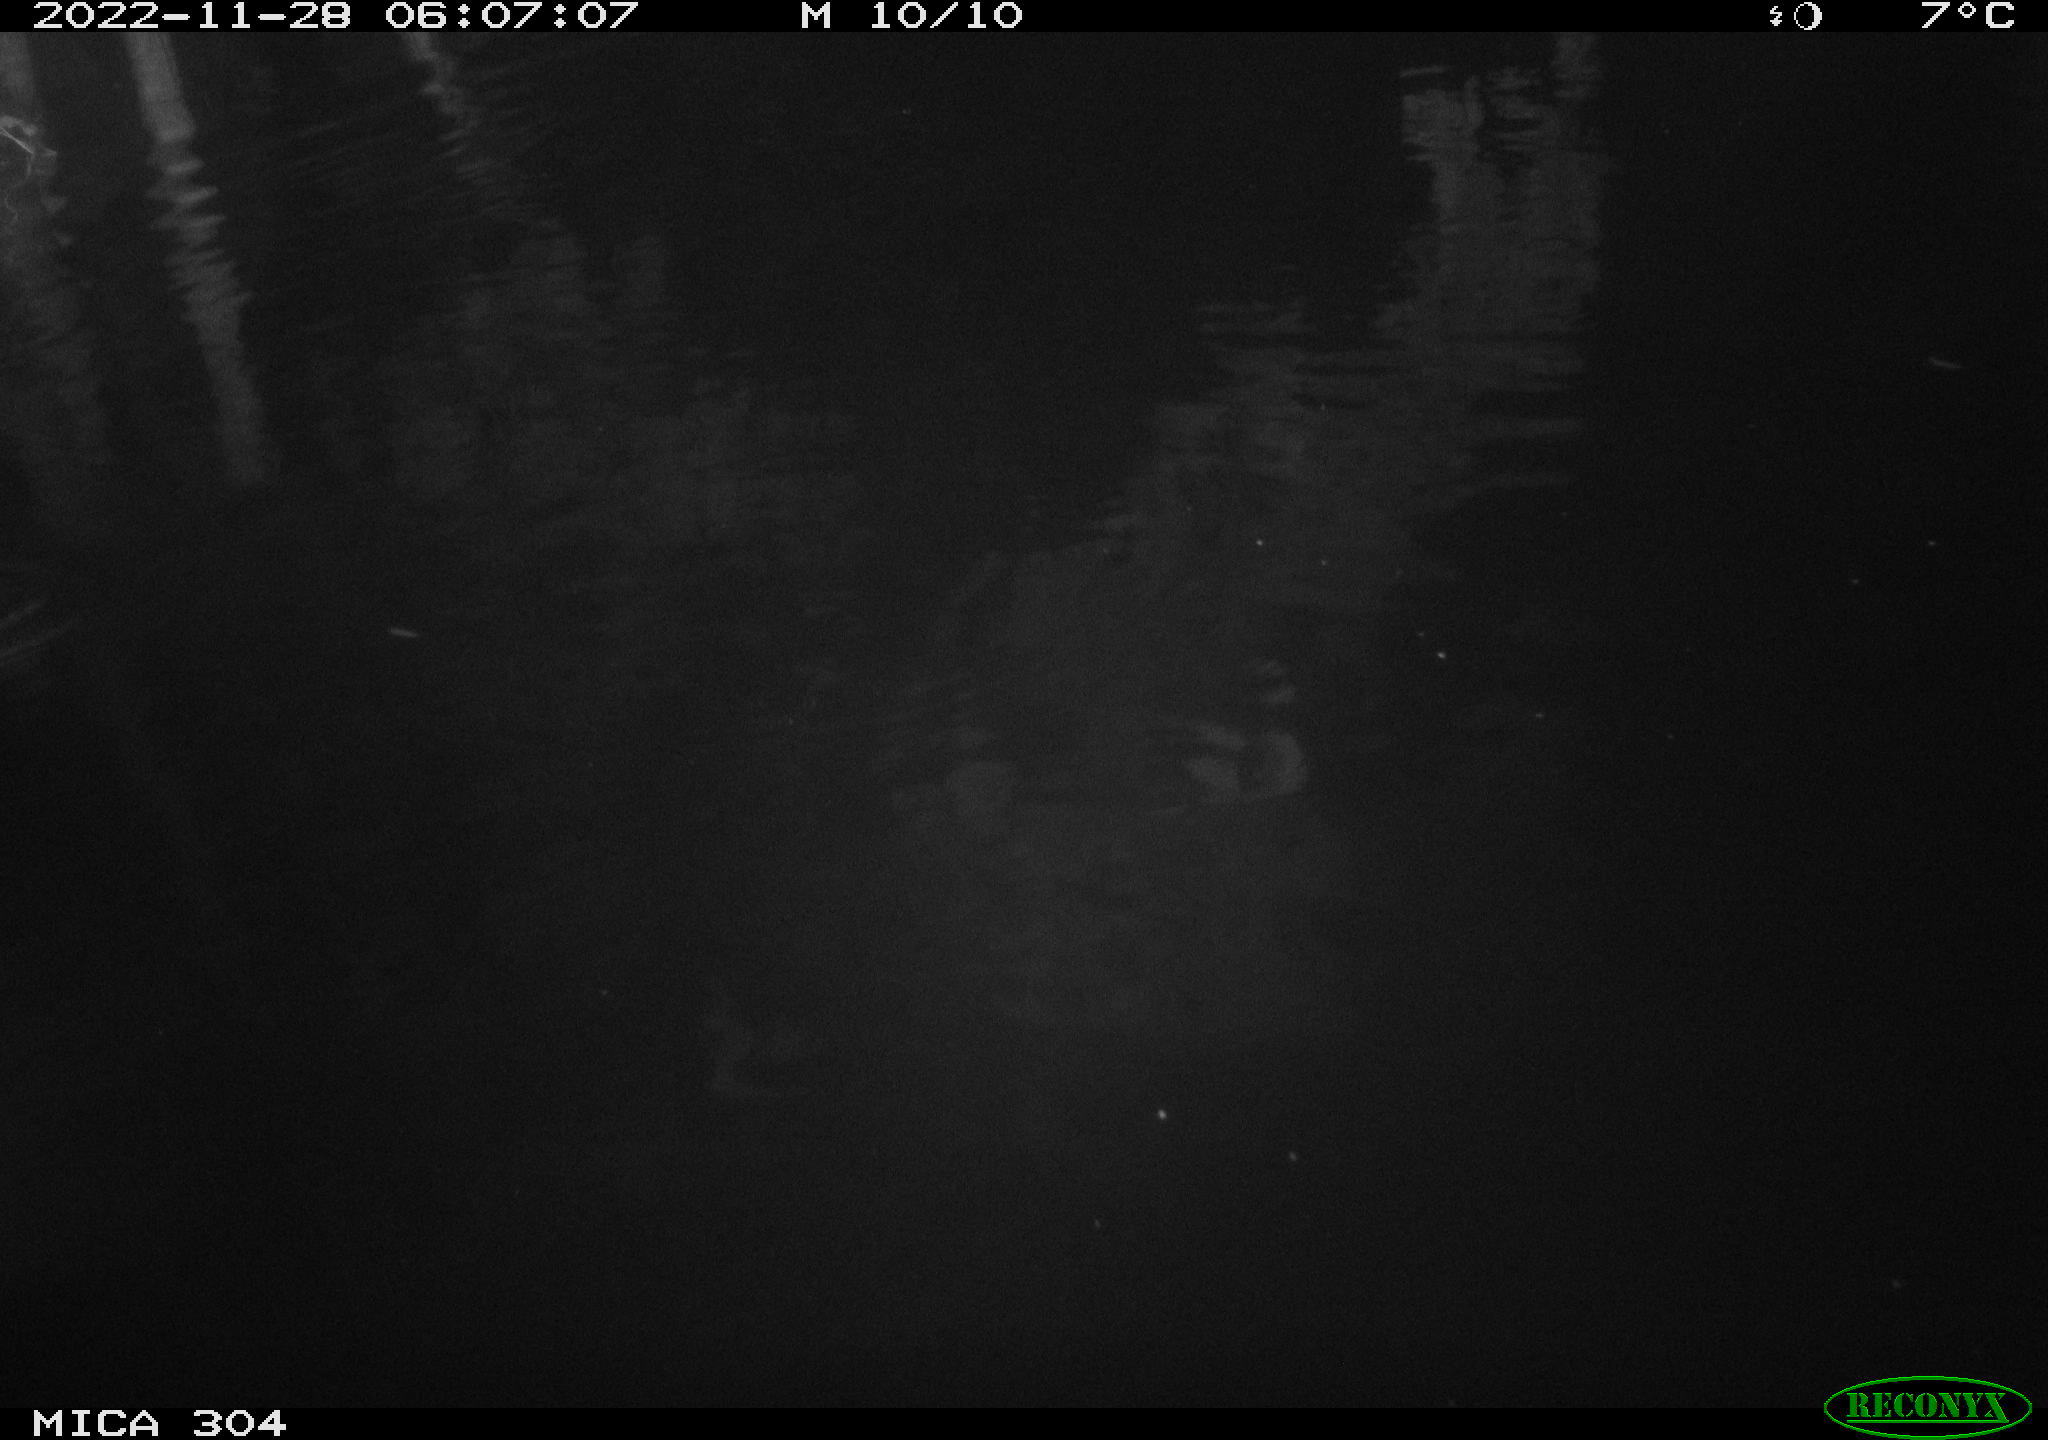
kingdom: Animalia
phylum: Chordata
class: Aves
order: Anseriformes
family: Anatidae
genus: Anas
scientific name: Anas
